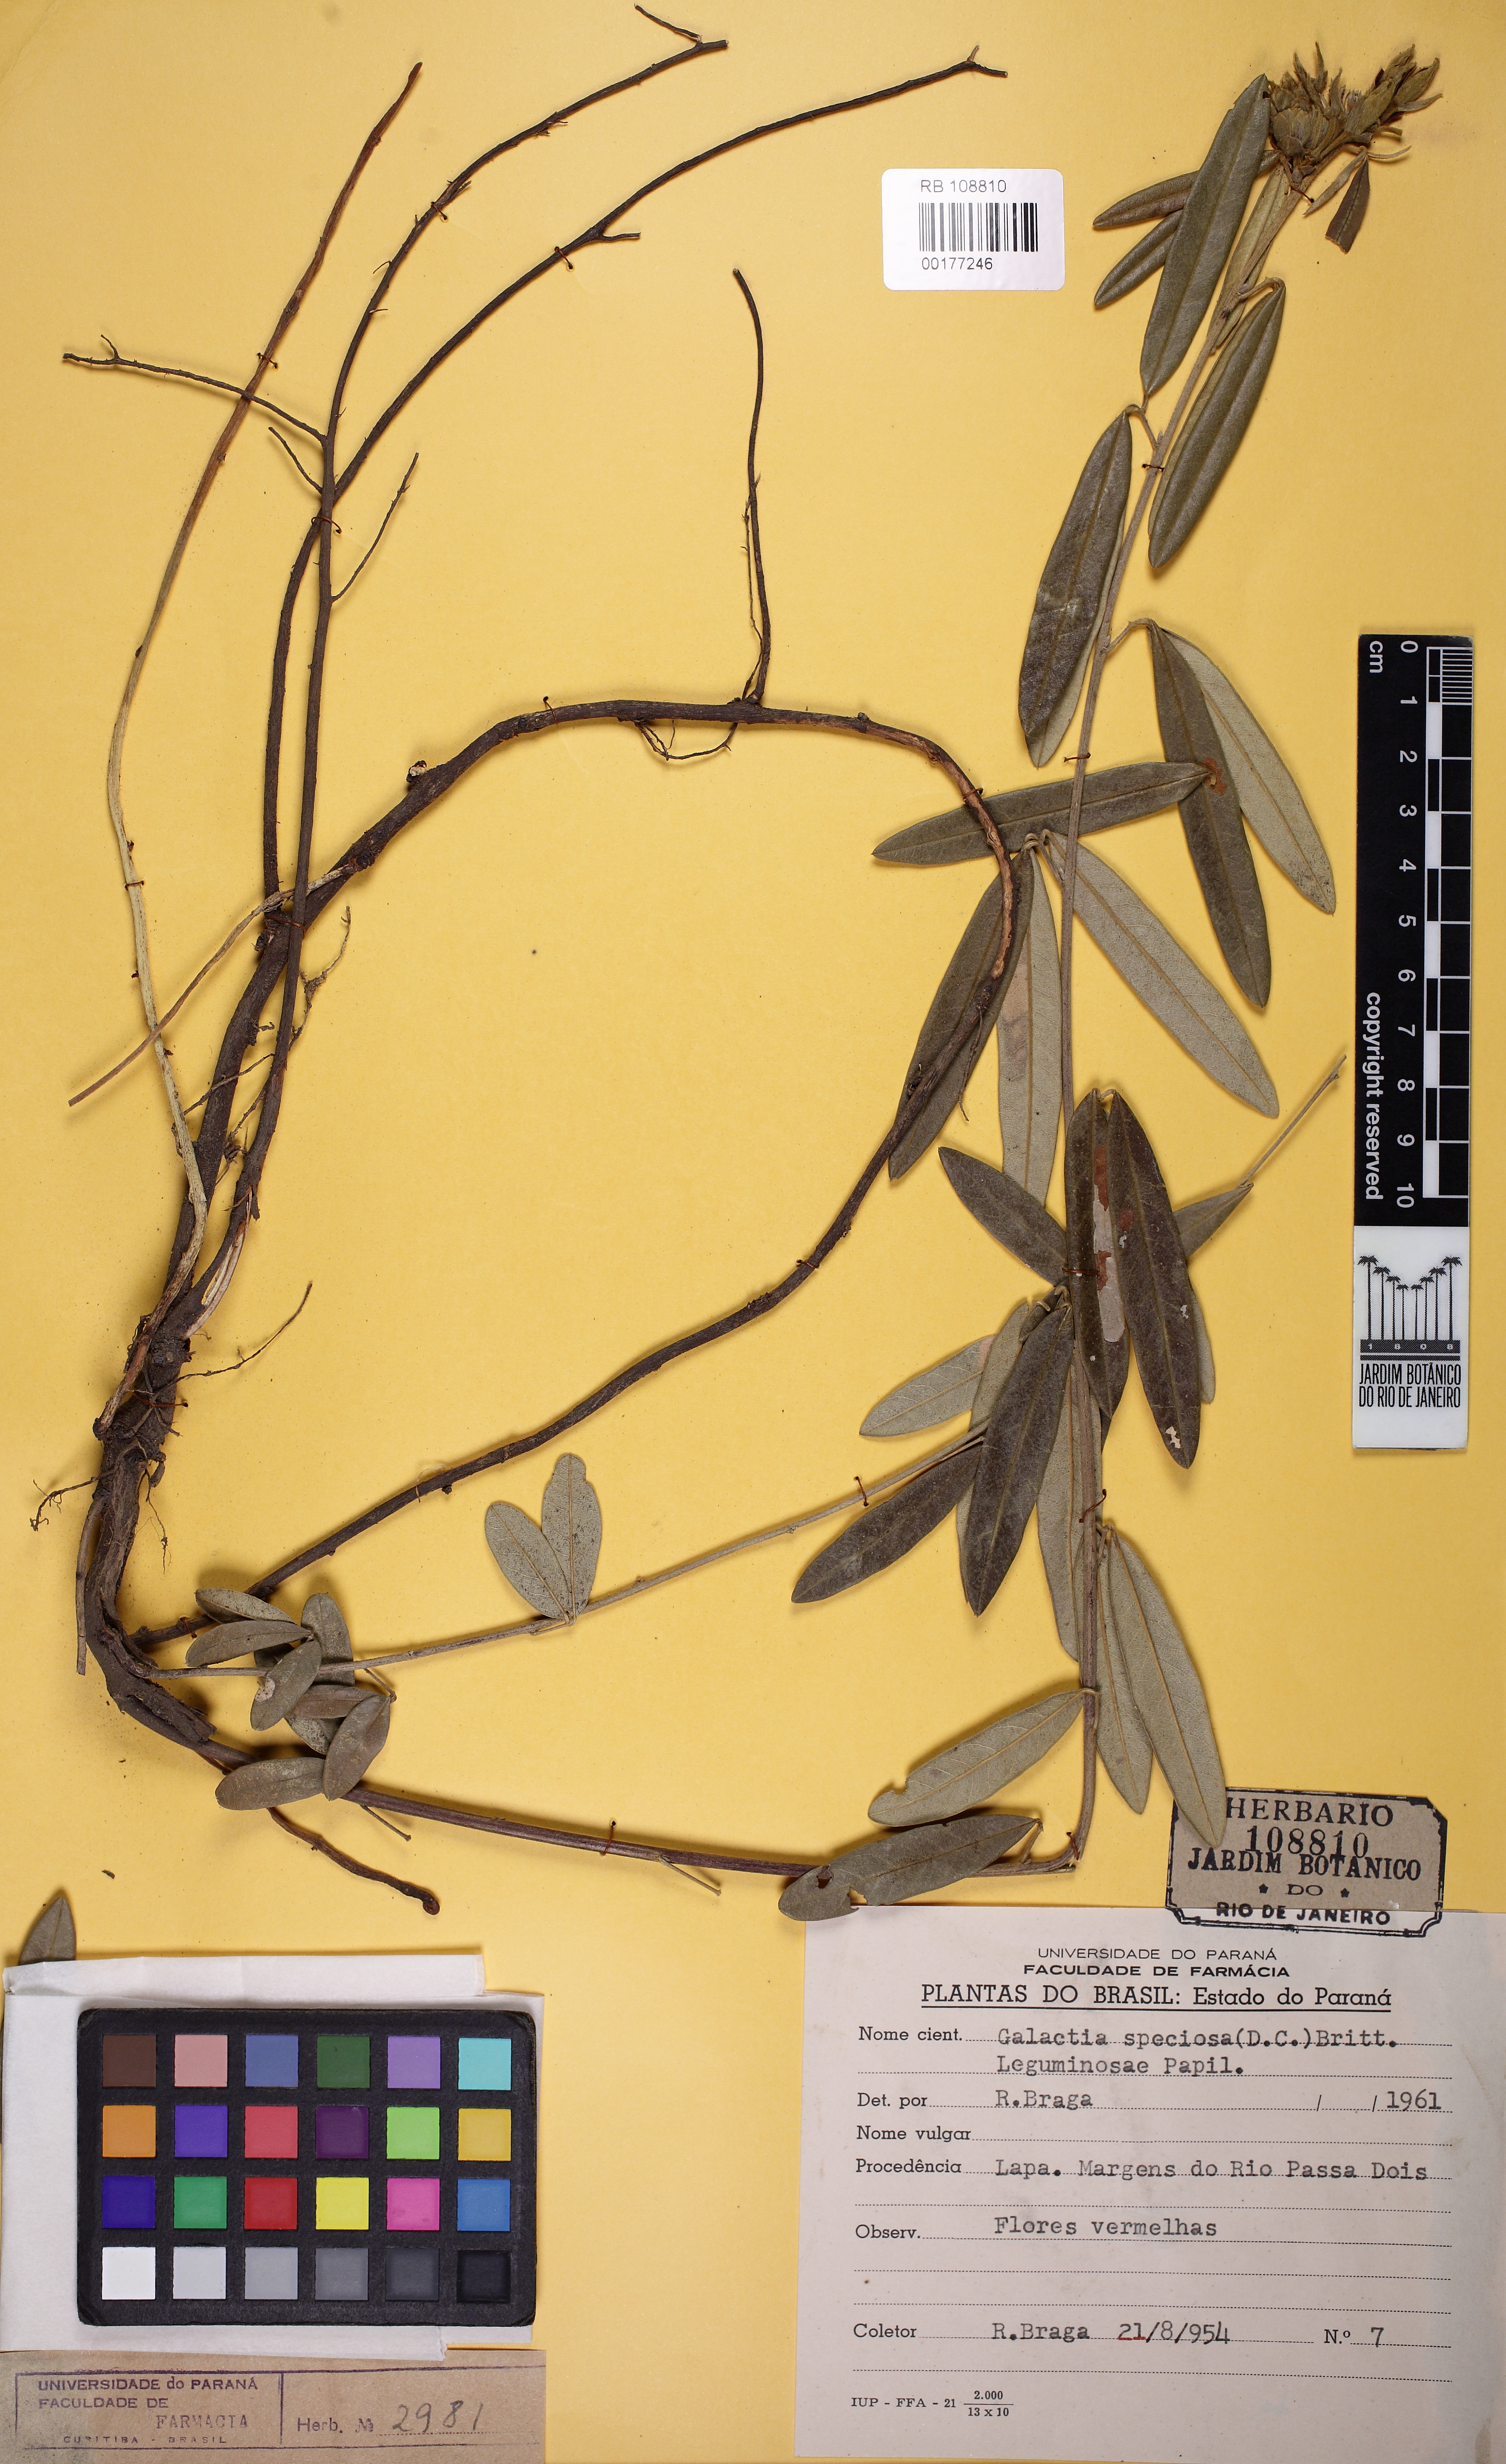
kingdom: Plantae
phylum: Tracheophyta
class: Magnoliopsida
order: Fabales
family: Fabaceae
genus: Collaea
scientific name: Collaea speciosa
